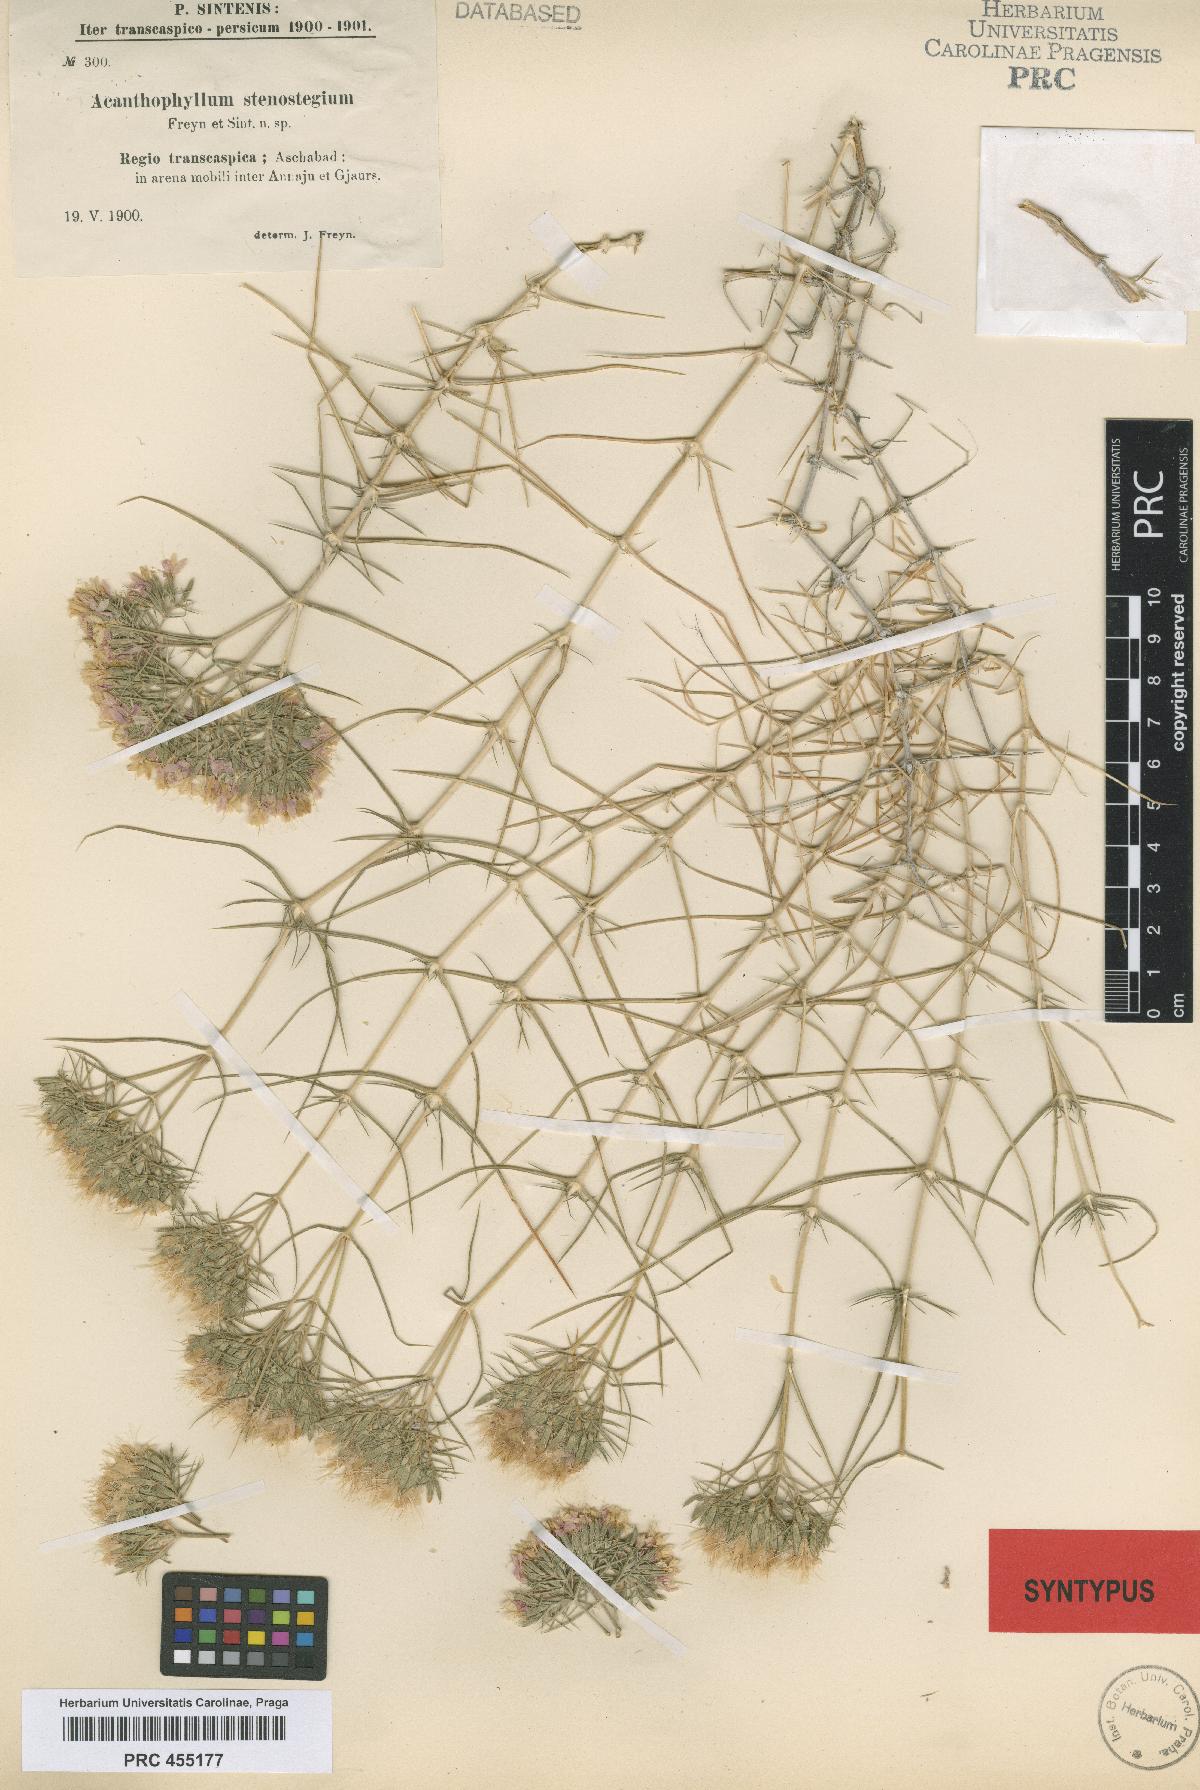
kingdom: Plantae
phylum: Tracheophyta
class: Magnoliopsida
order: Caryophyllales
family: Caryophyllaceae
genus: Acanthophyllum
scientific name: Acanthophyllum stenostegium
